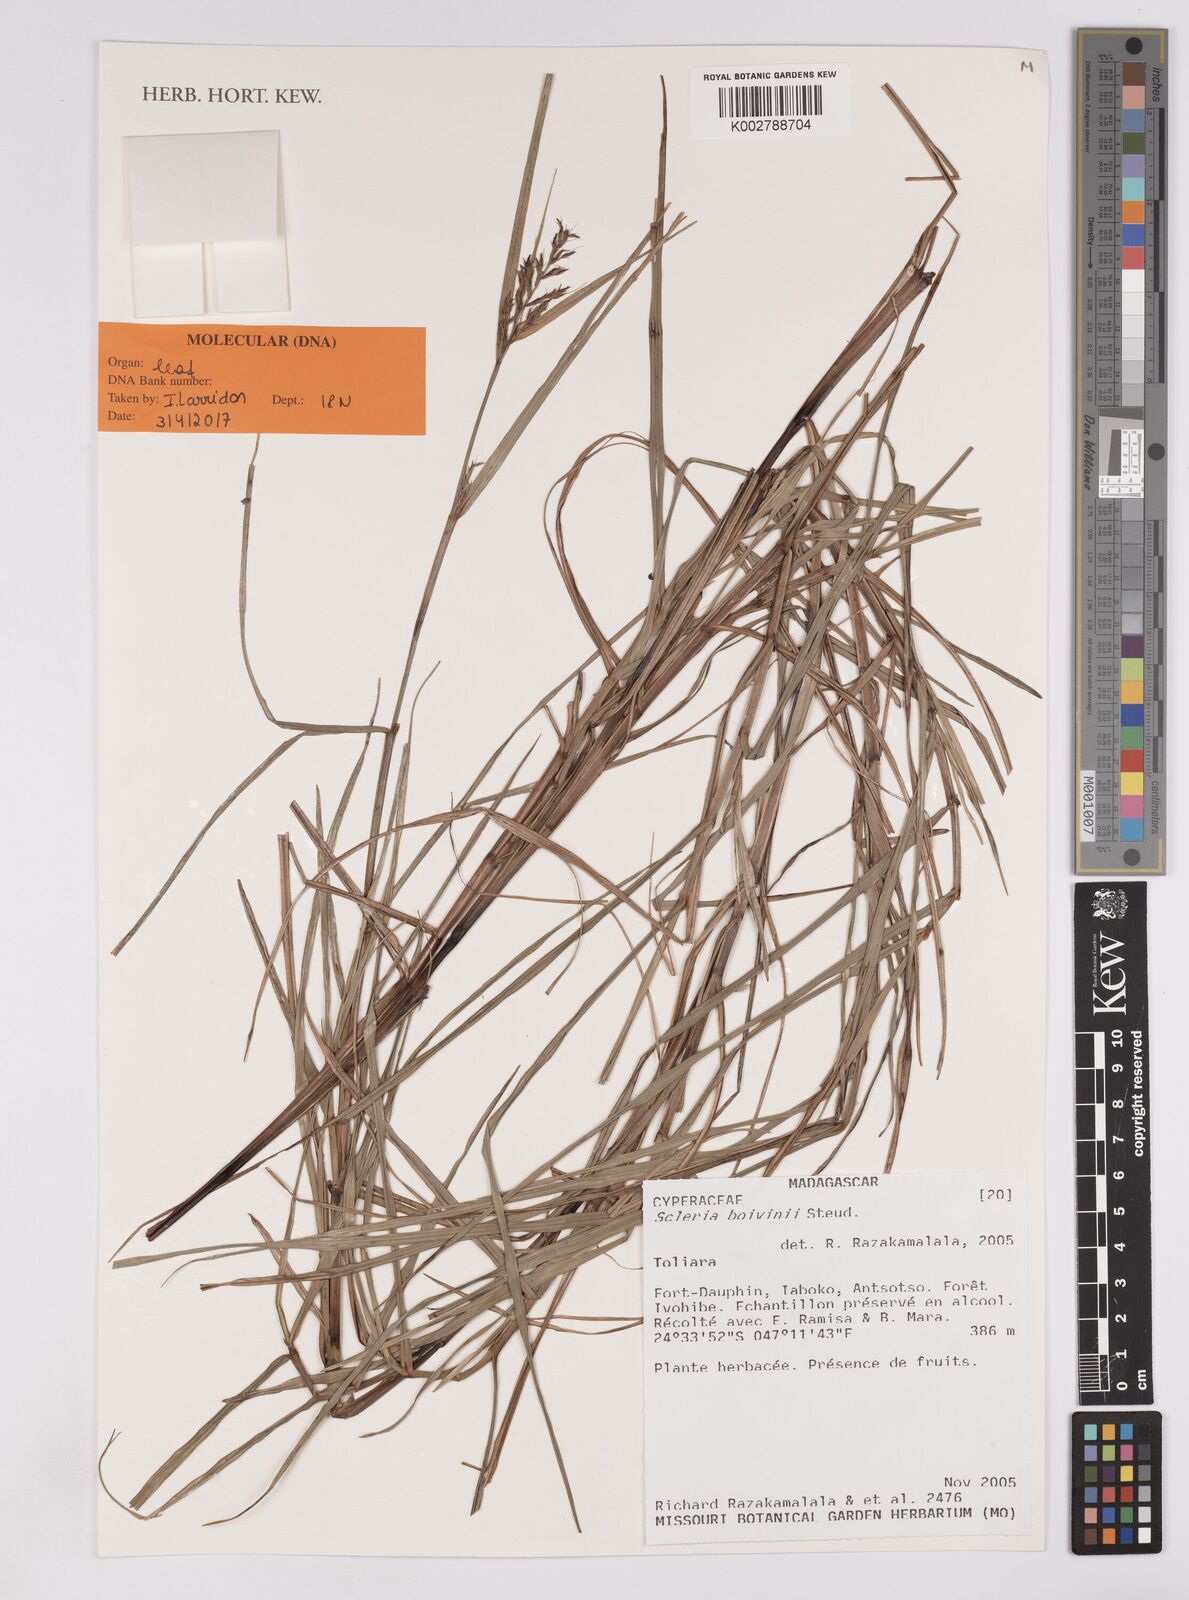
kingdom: Plantae
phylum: Tracheophyta
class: Liliopsida
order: Poales
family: Cyperaceae
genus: Scleria
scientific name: Scleria boivinii
